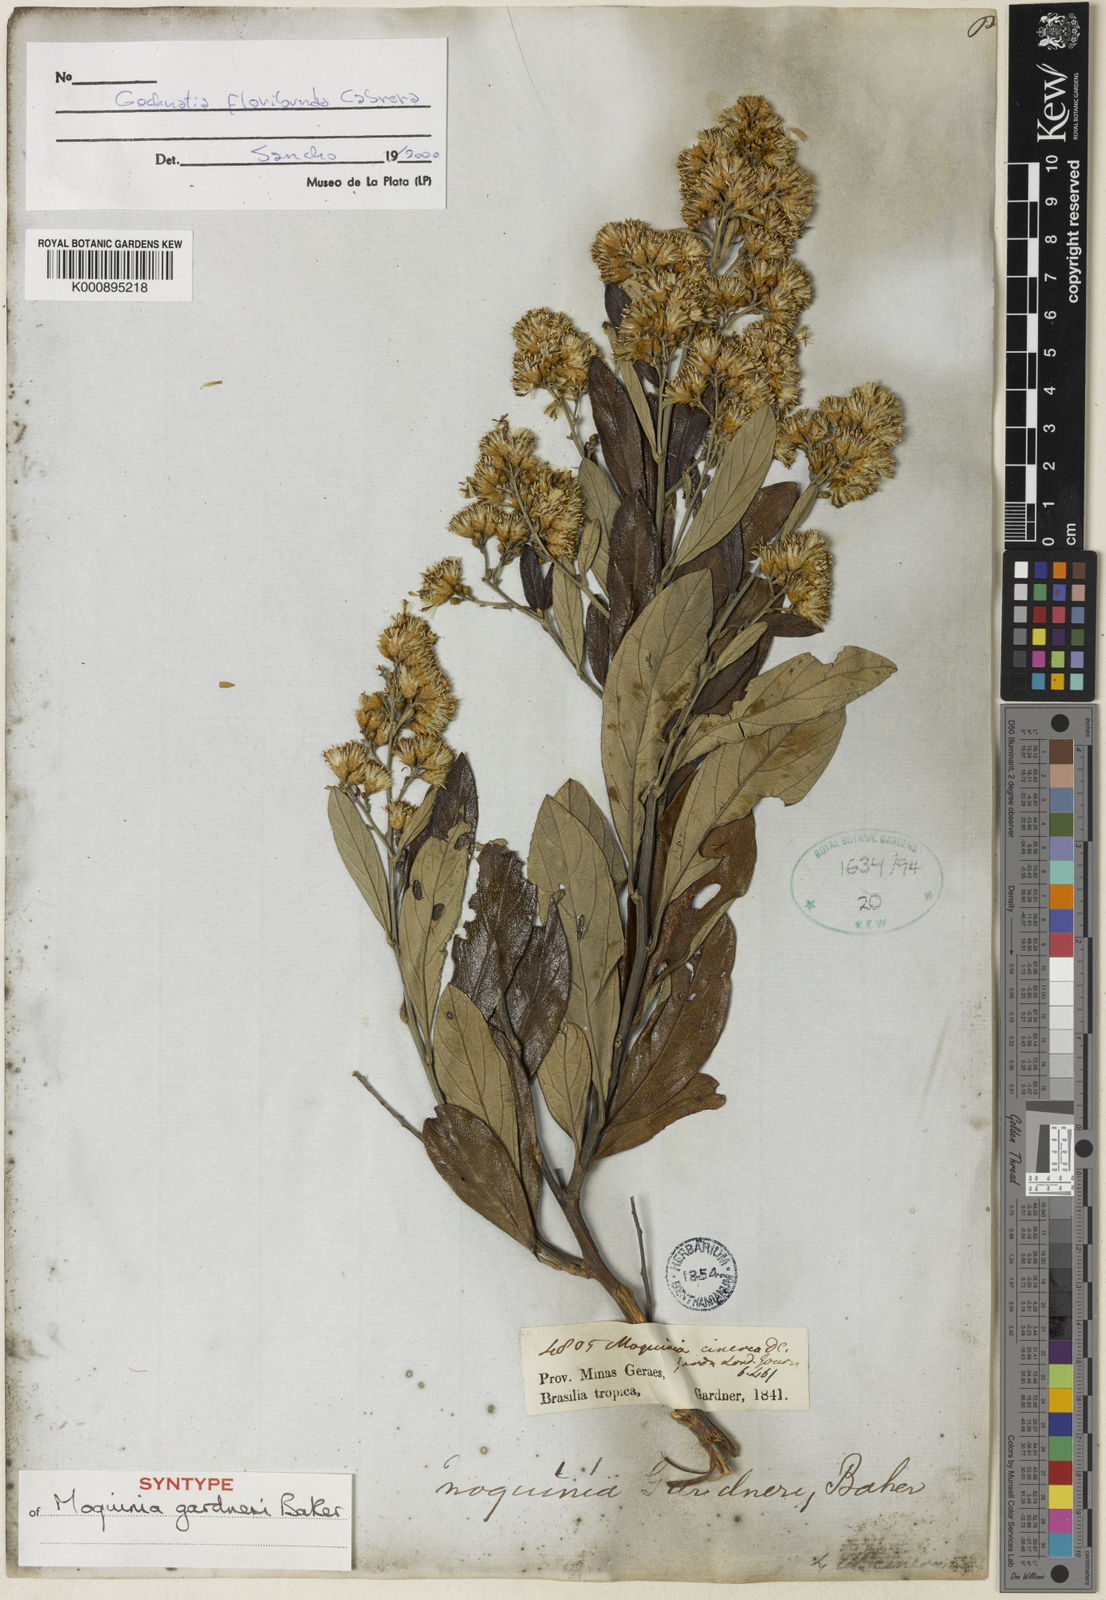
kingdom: Plantae
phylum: Tracheophyta
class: Magnoliopsida
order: Asterales
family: Asteraceae
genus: Moquiniastrum
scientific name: Moquiniastrum floribundum
